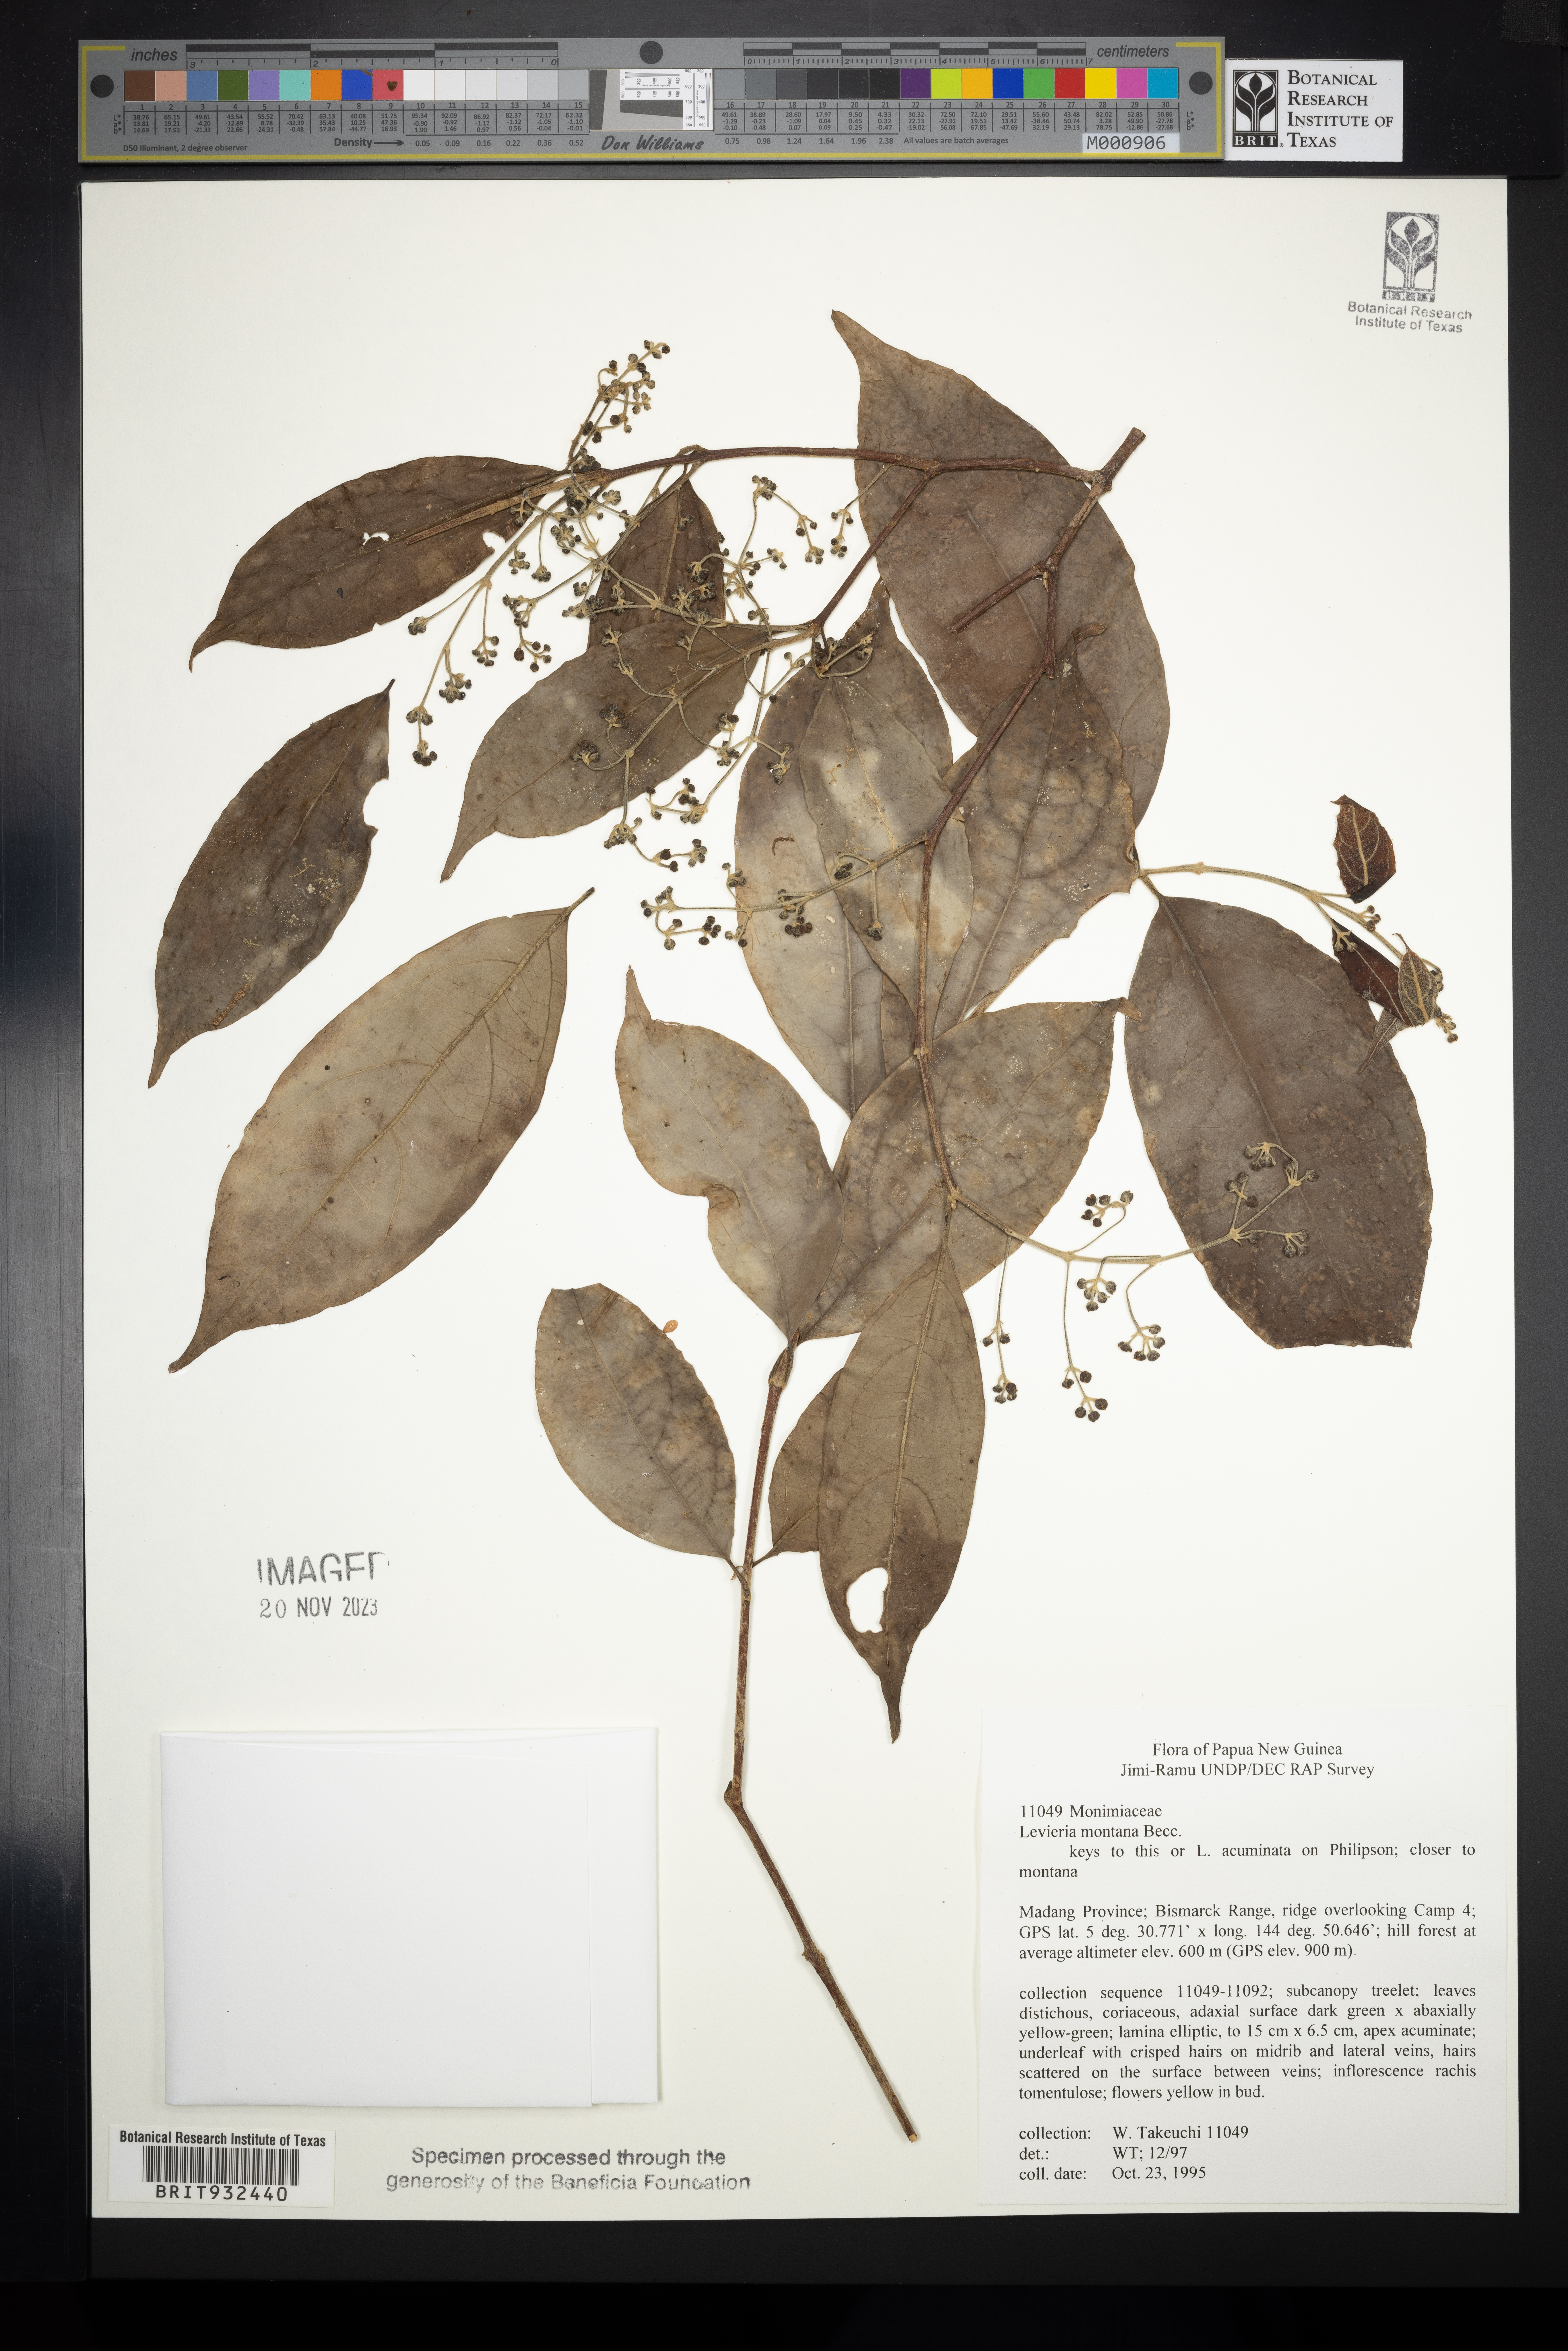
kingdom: Plantae
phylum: Tracheophyta
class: Magnoliopsida
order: Laurales
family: Monimiaceae
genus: Levieria
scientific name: Levieria
